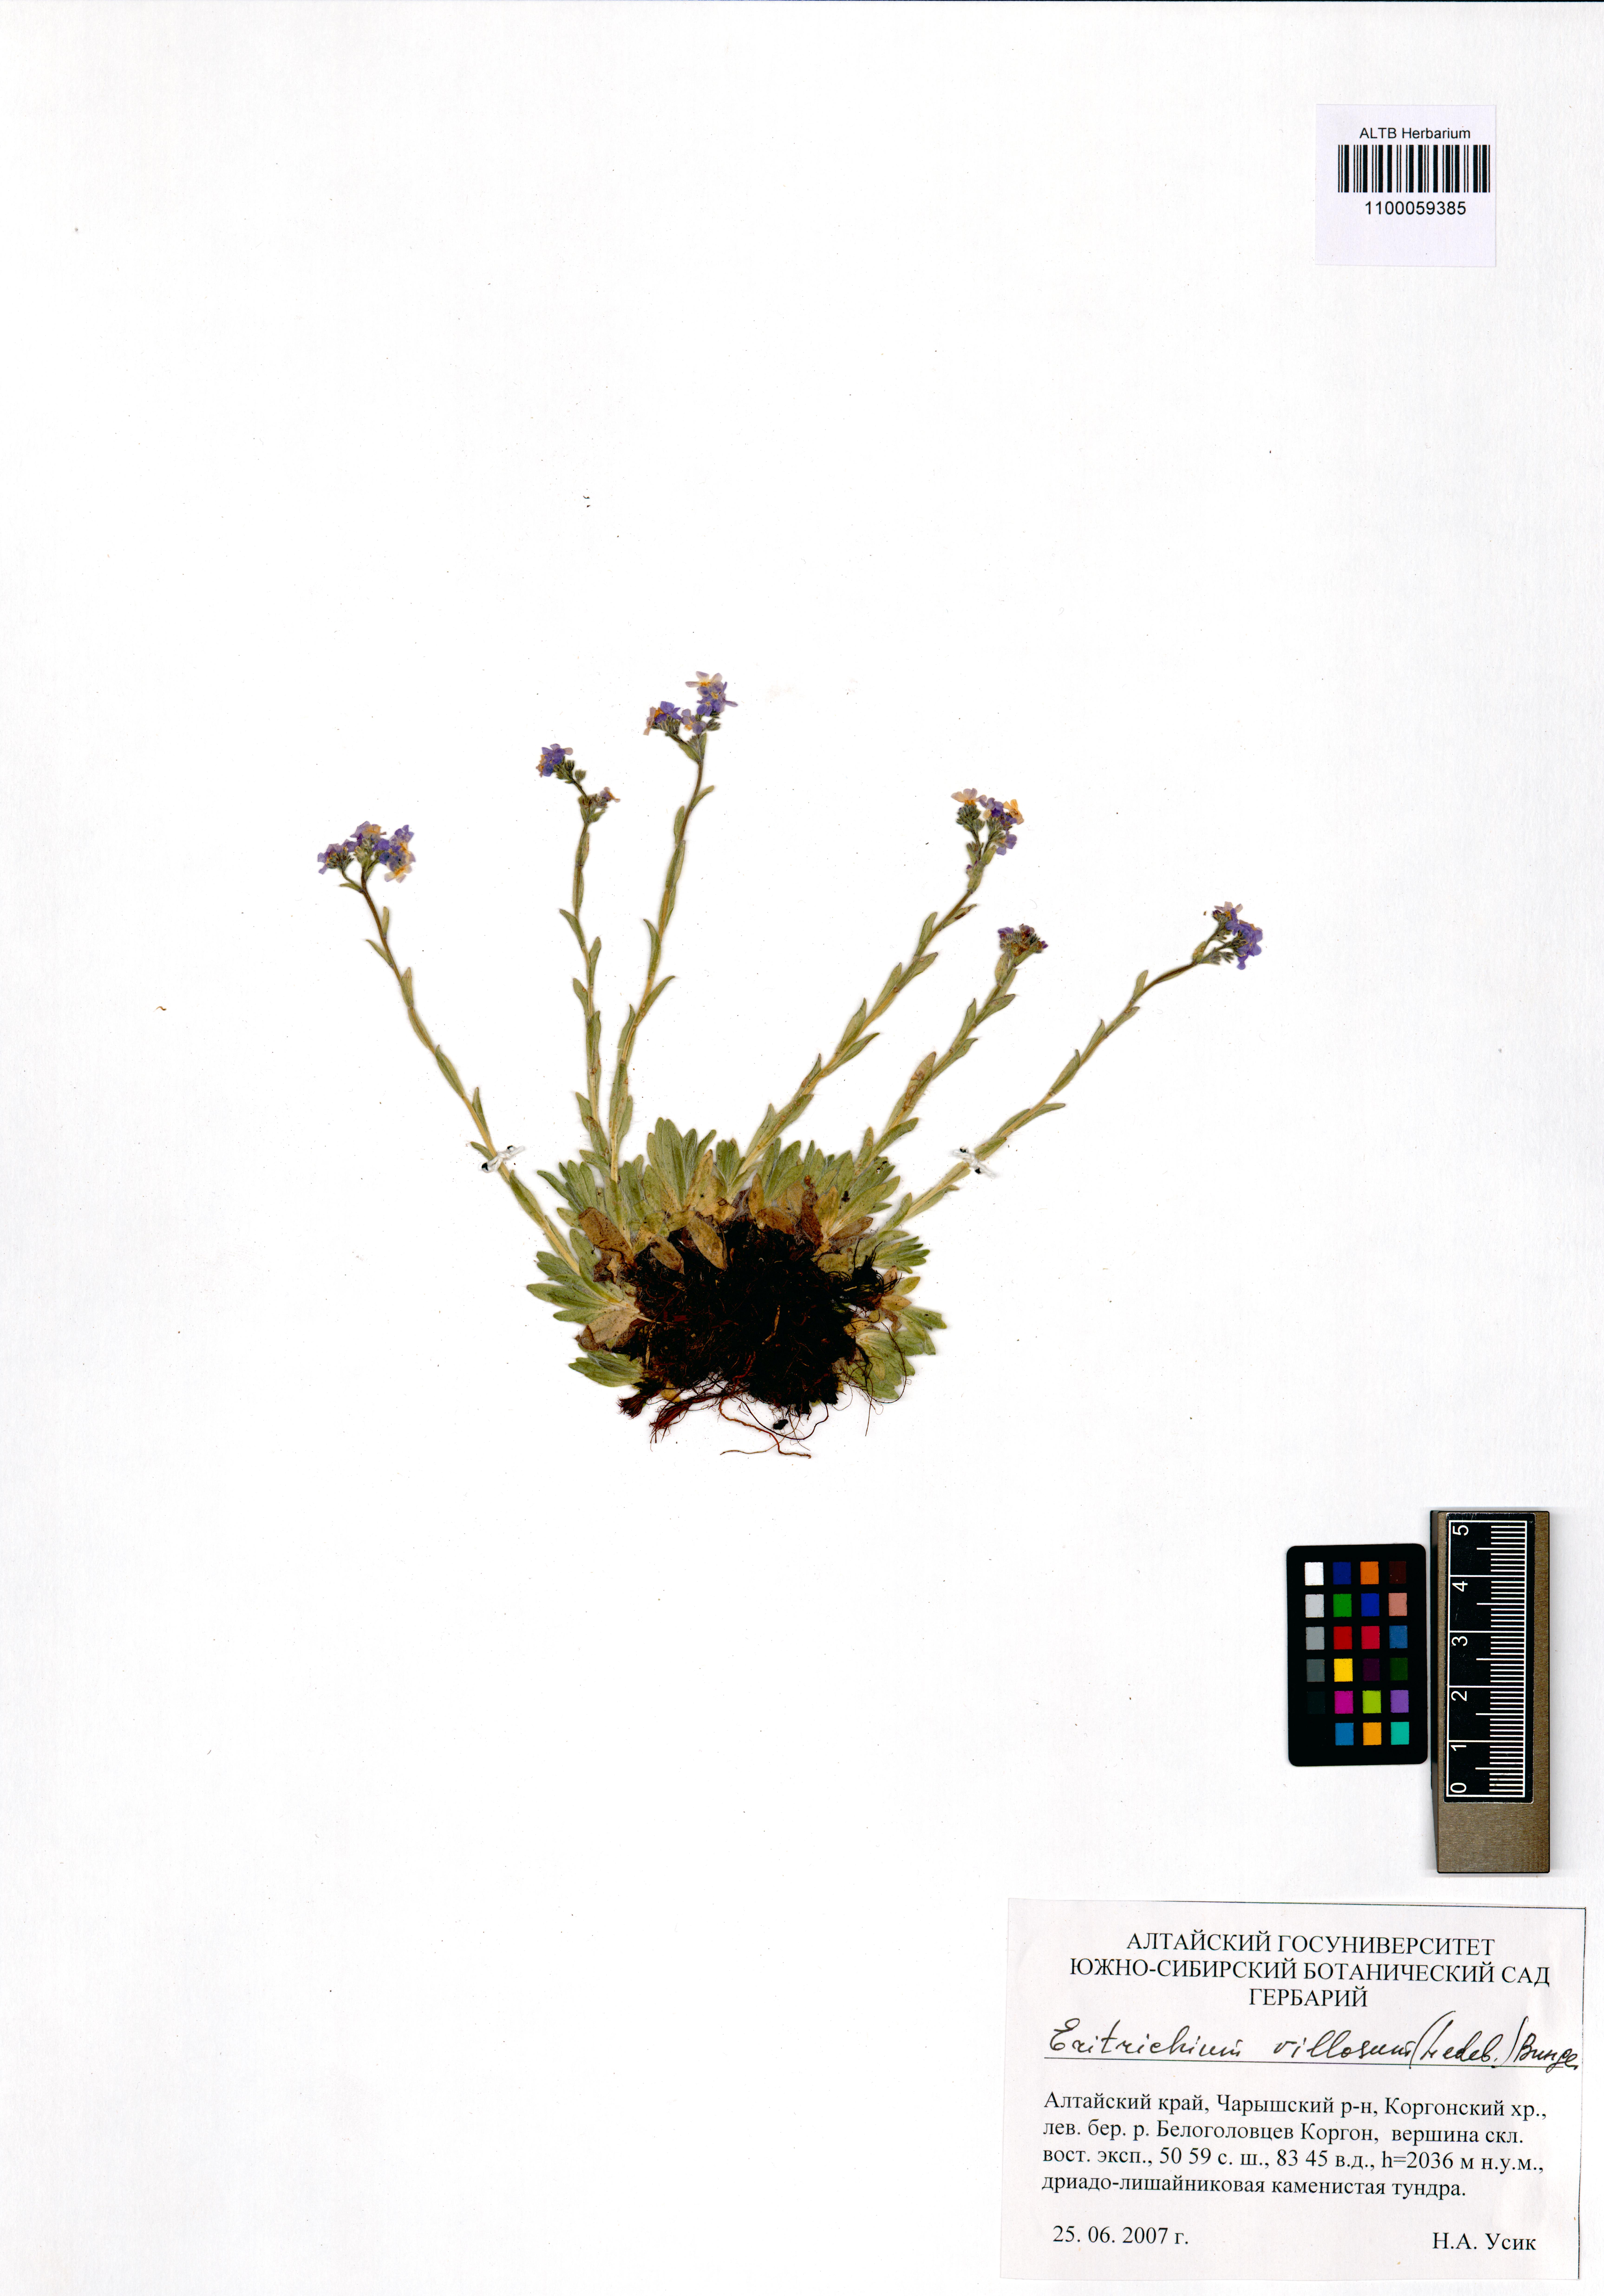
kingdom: Plantae
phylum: Tracheophyta
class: Magnoliopsida
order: Boraginales
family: Boraginaceae
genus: Eritrichium
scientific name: Eritrichium villosum
